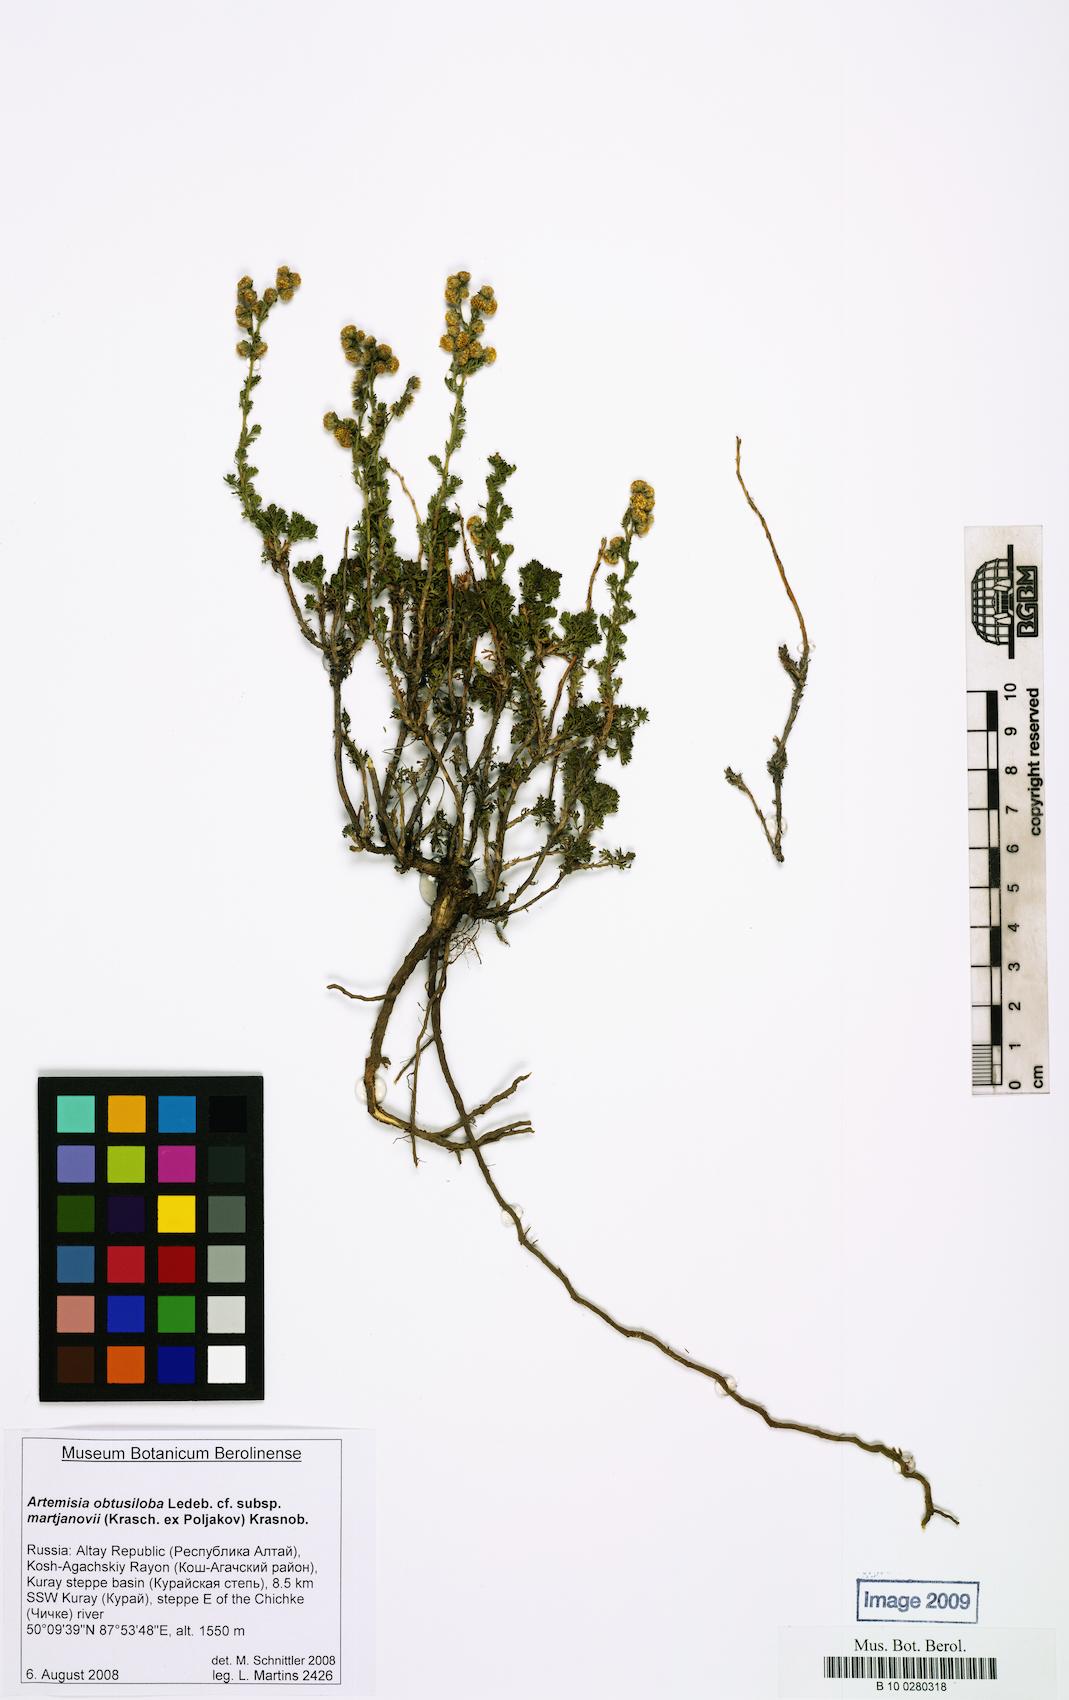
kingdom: Plantae
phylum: Tracheophyta
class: Magnoliopsida
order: Asterales
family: Asteraceae
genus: Artemisia
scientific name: Artemisia obtusiloba
